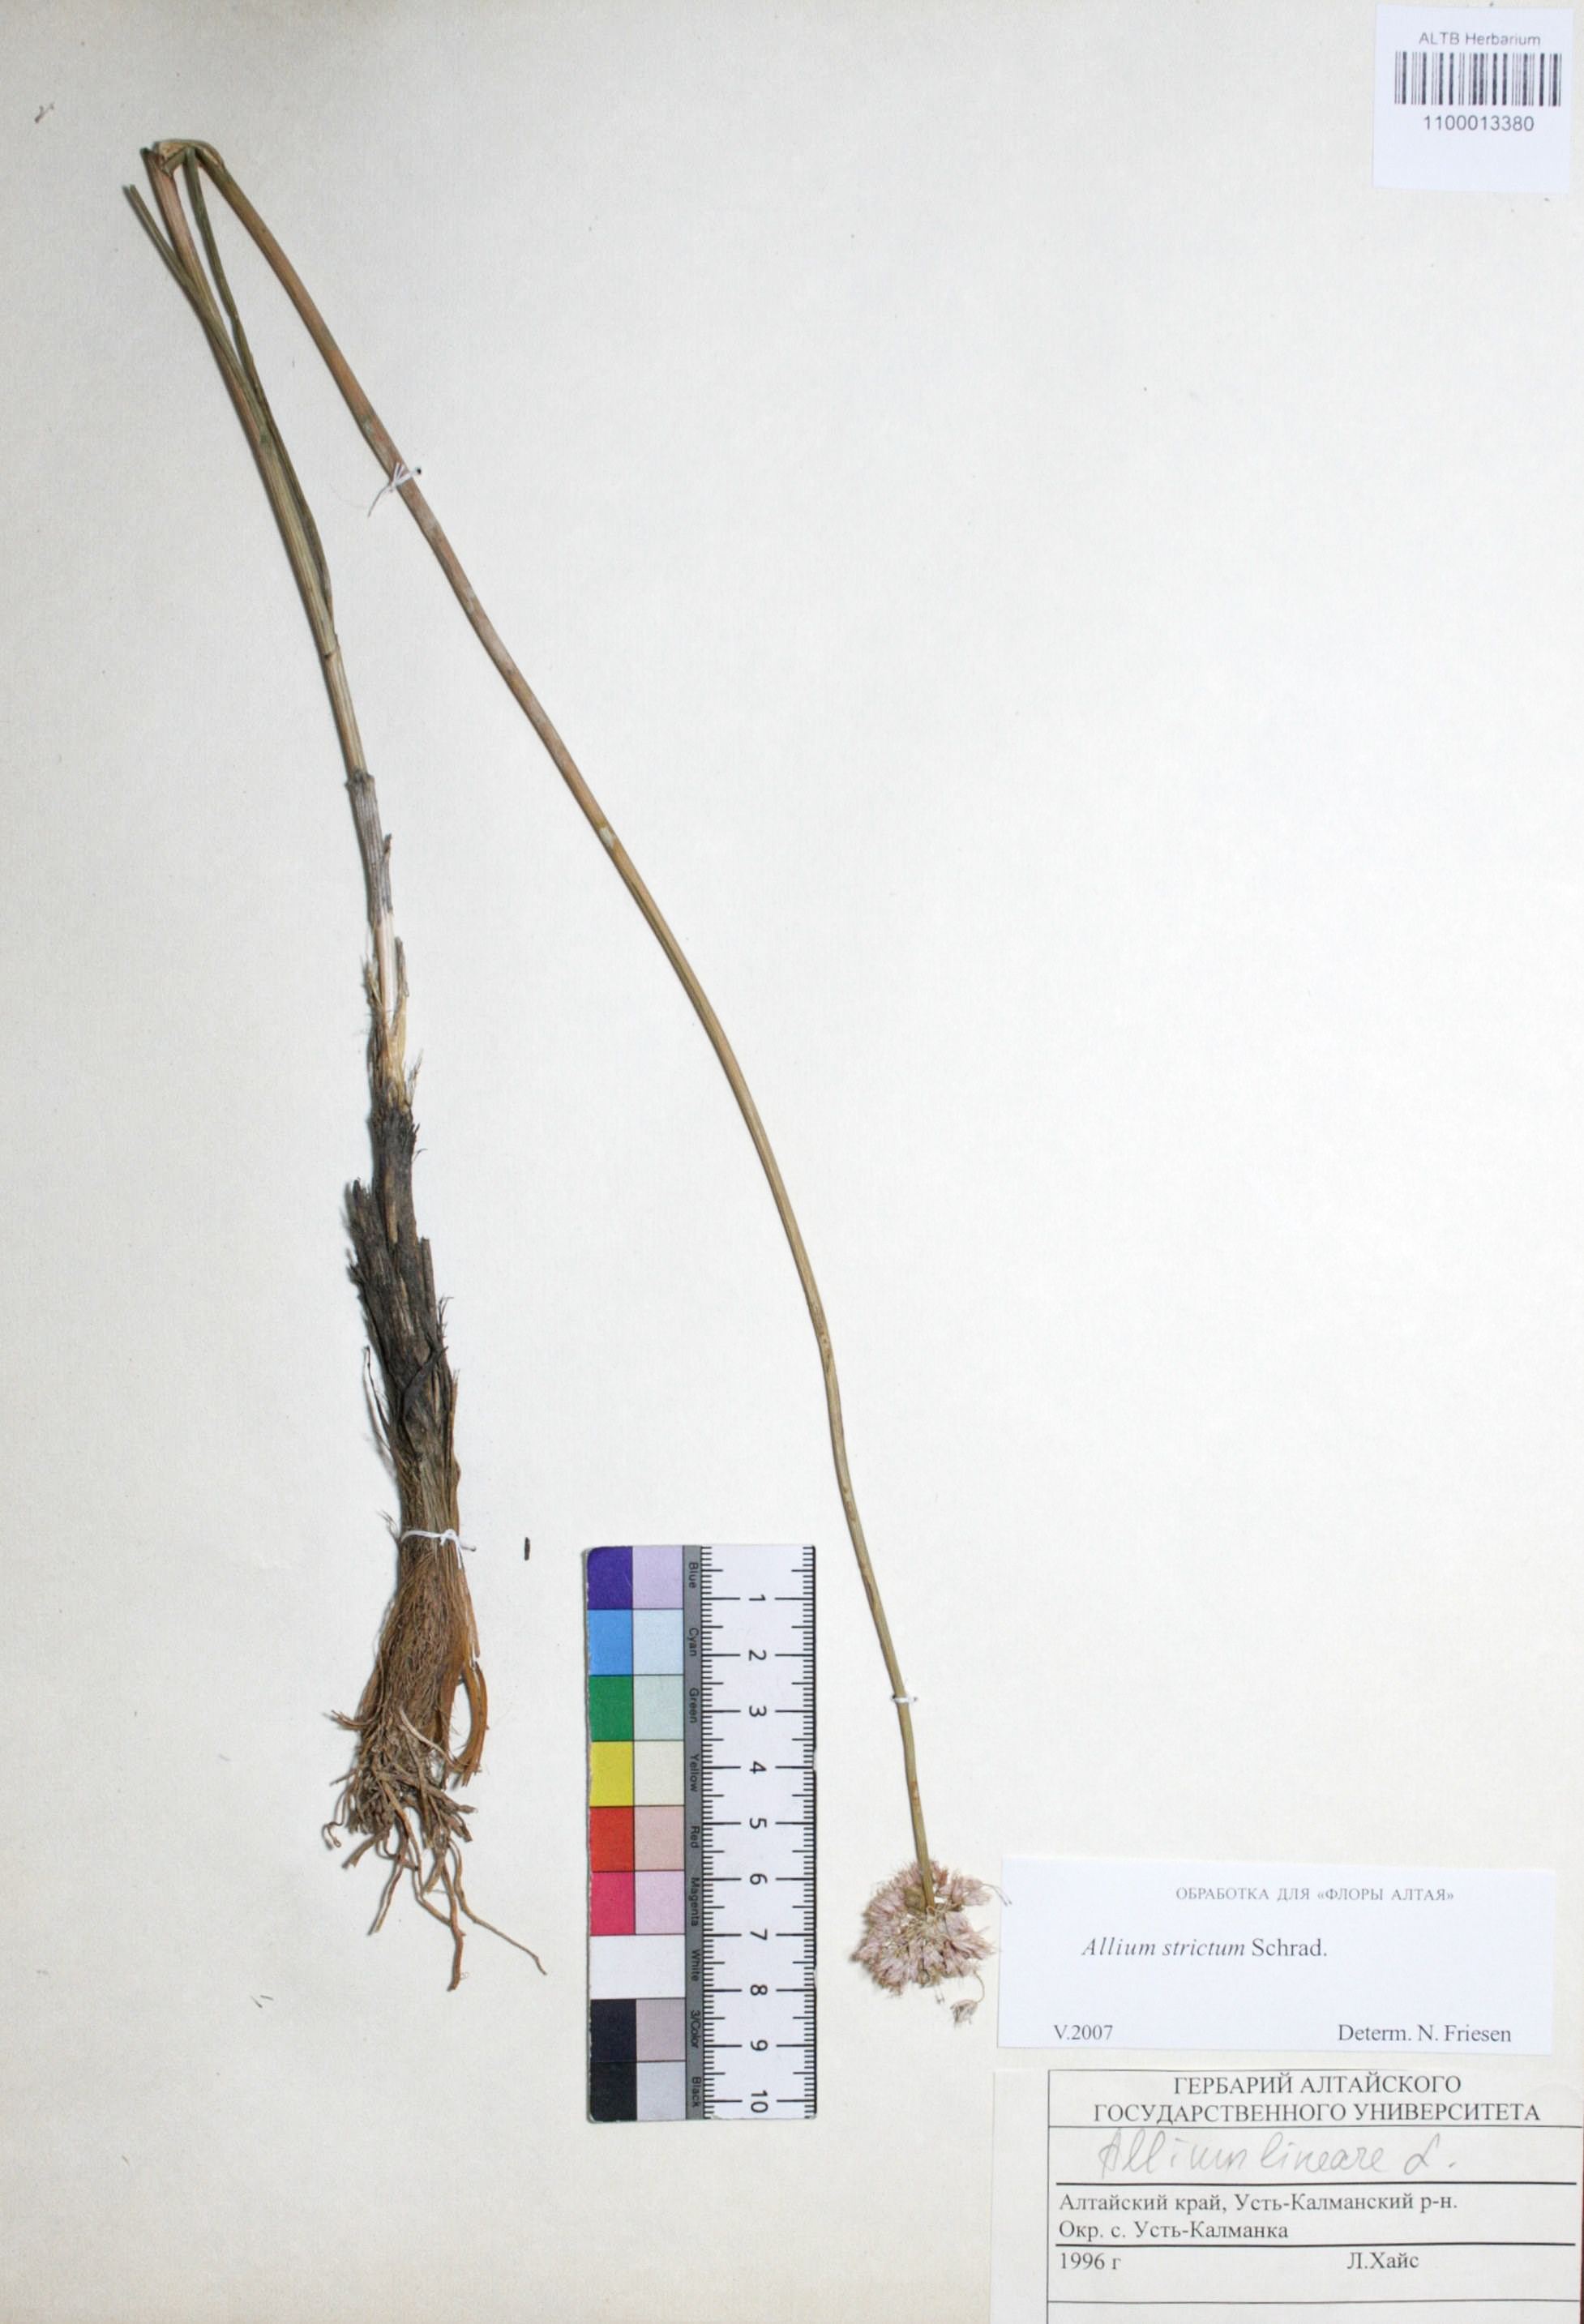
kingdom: Plantae
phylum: Tracheophyta
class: Liliopsida
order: Asparagales
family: Amaryllidaceae
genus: Allium
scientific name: Allium strictum
